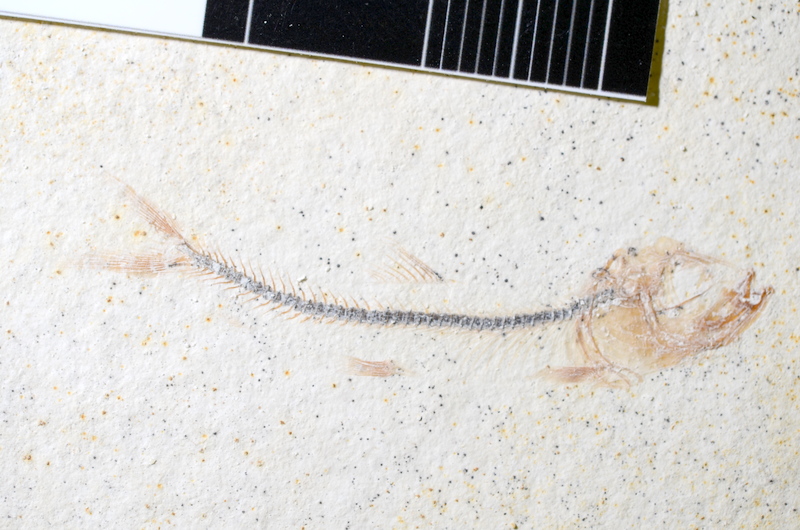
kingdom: Animalia
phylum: Chordata
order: Salmoniformes
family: Orthogonikleithridae
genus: Orthogonikleithrus
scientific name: Orthogonikleithrus hoelli
